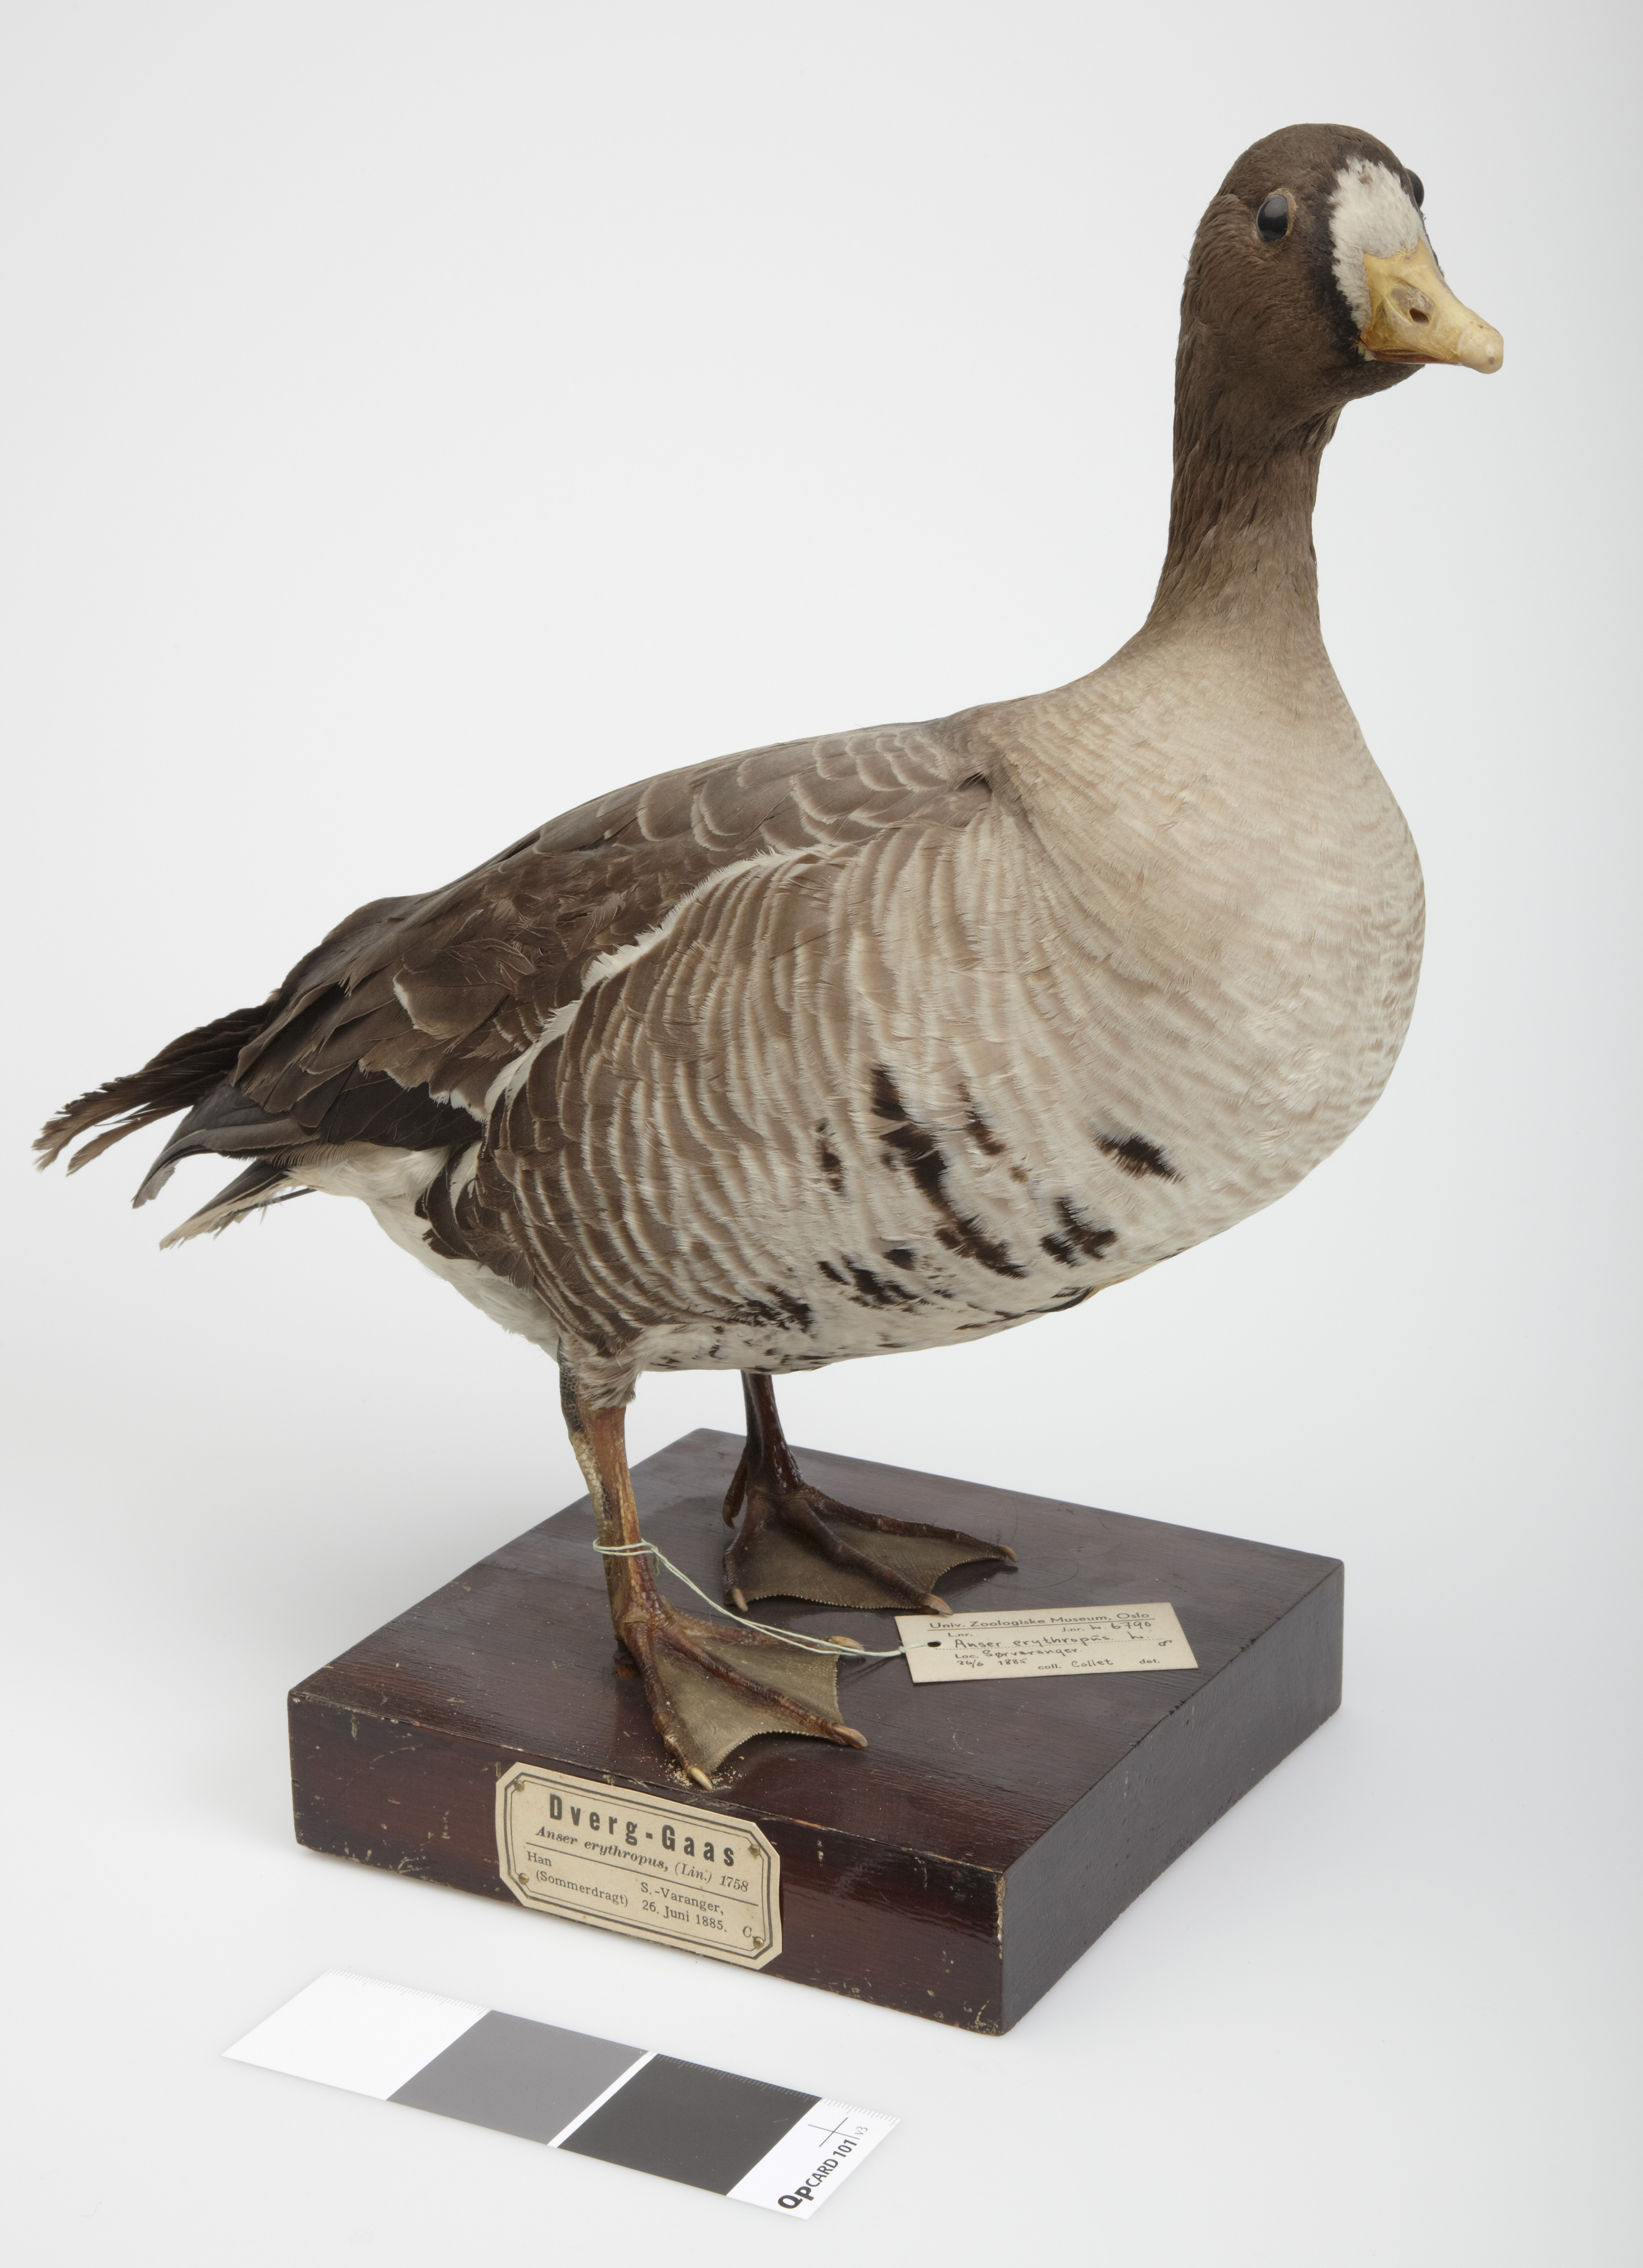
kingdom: Animalia
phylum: Chordata
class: Aves
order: Anseriformes
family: Anatidae
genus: Anser
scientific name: Anser erythropus
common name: Lesser white-fronted goose
